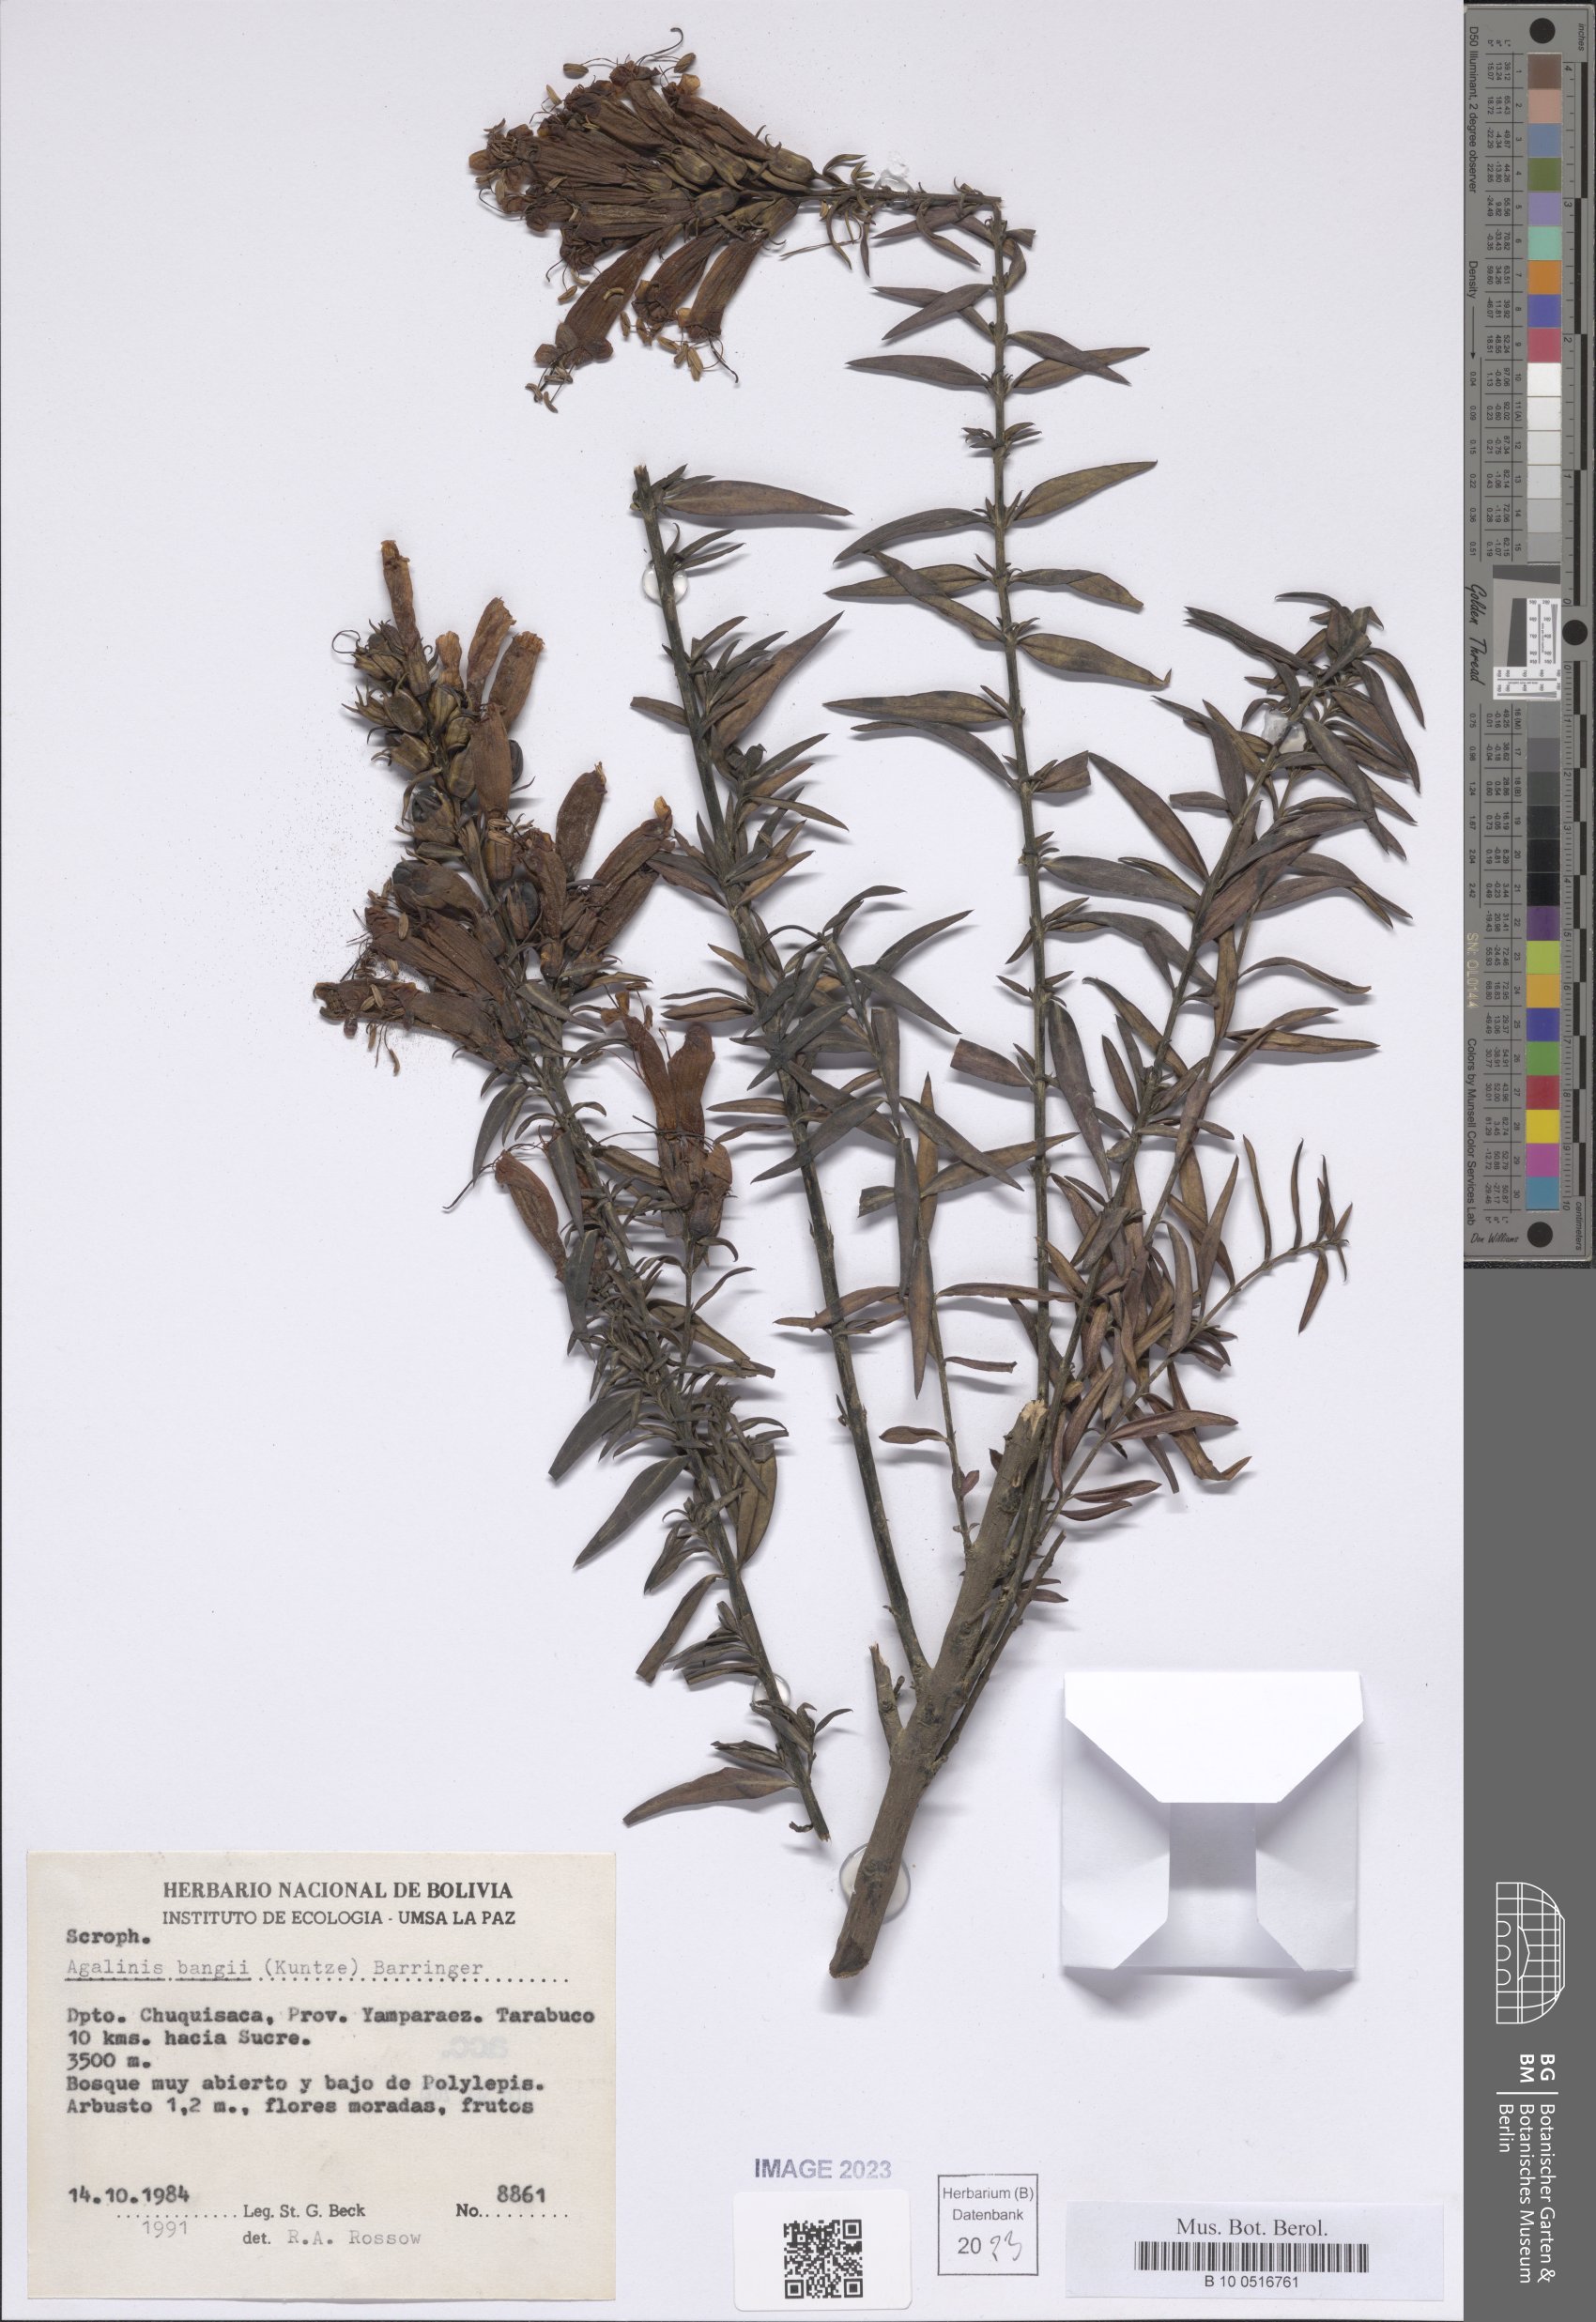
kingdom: Plantae
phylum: Tracheophyta
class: Magnoliopsida
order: Lamiales
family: Orobanchaceae
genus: Agalinis
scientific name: Agalinis bangii
